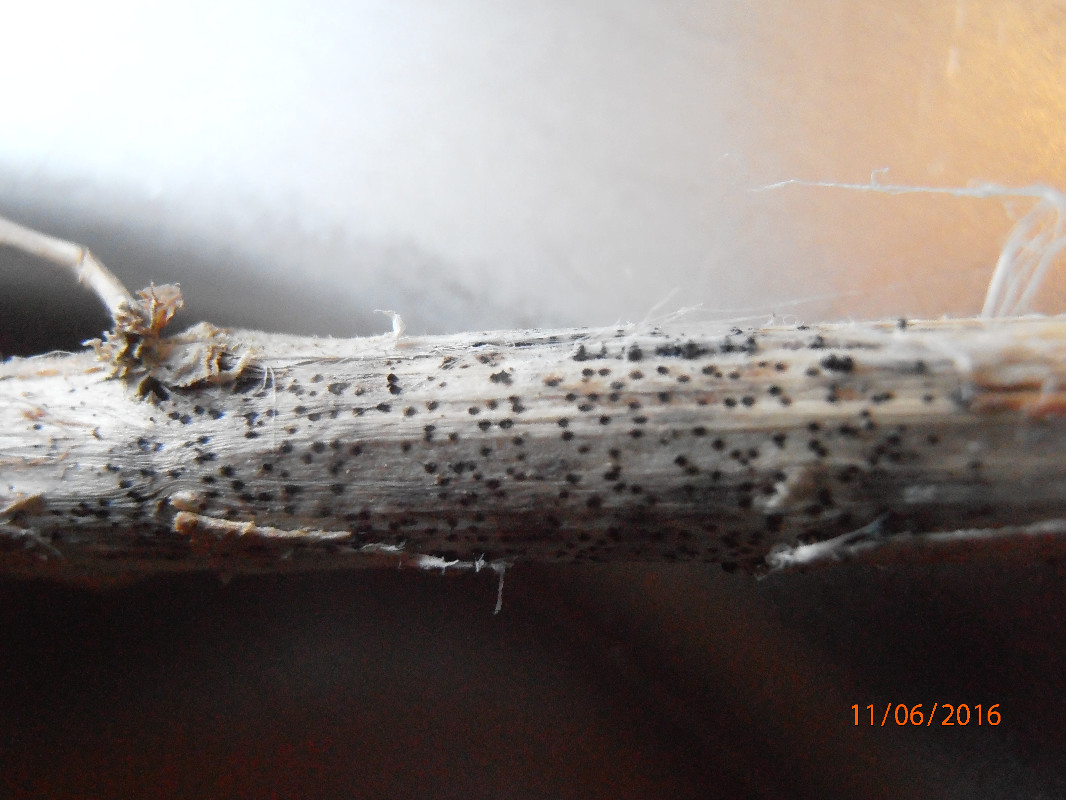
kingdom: Fungi
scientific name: Fungi
